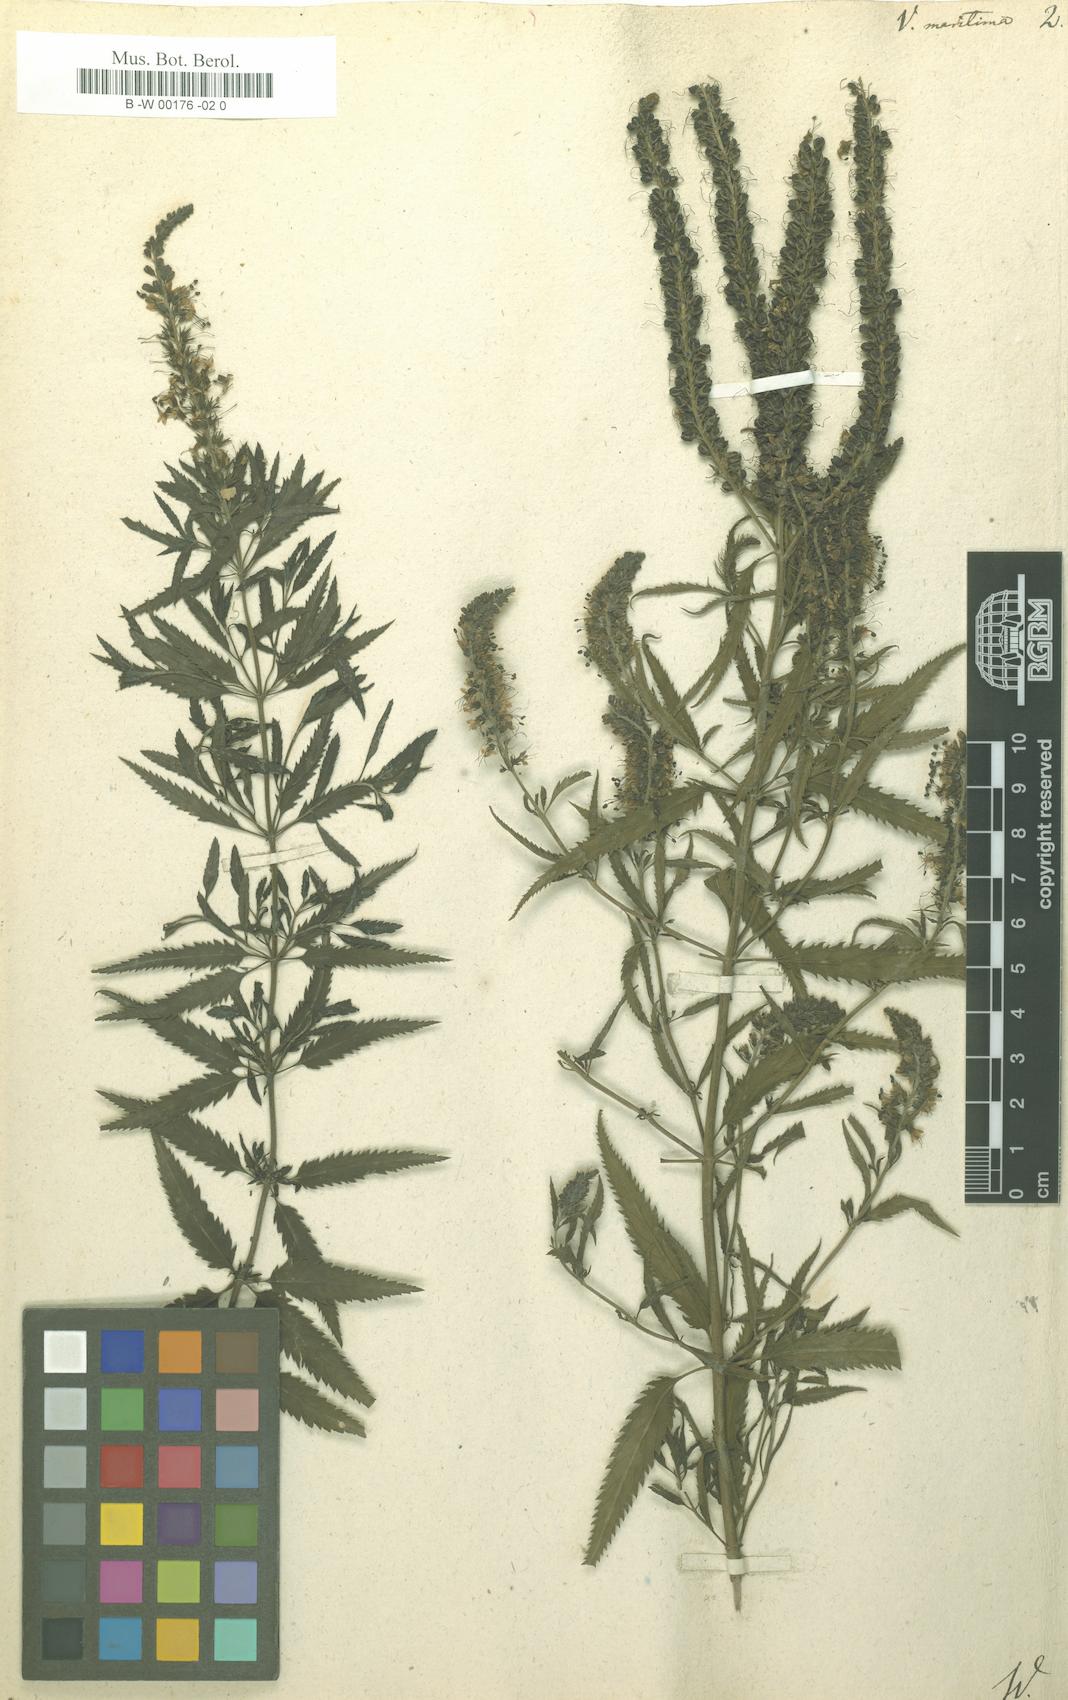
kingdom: Plantae
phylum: Tracheophyta
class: Magnoliopsida
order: Lamiales
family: Plantaginaceae
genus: Veronica
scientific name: Veronica maritima
